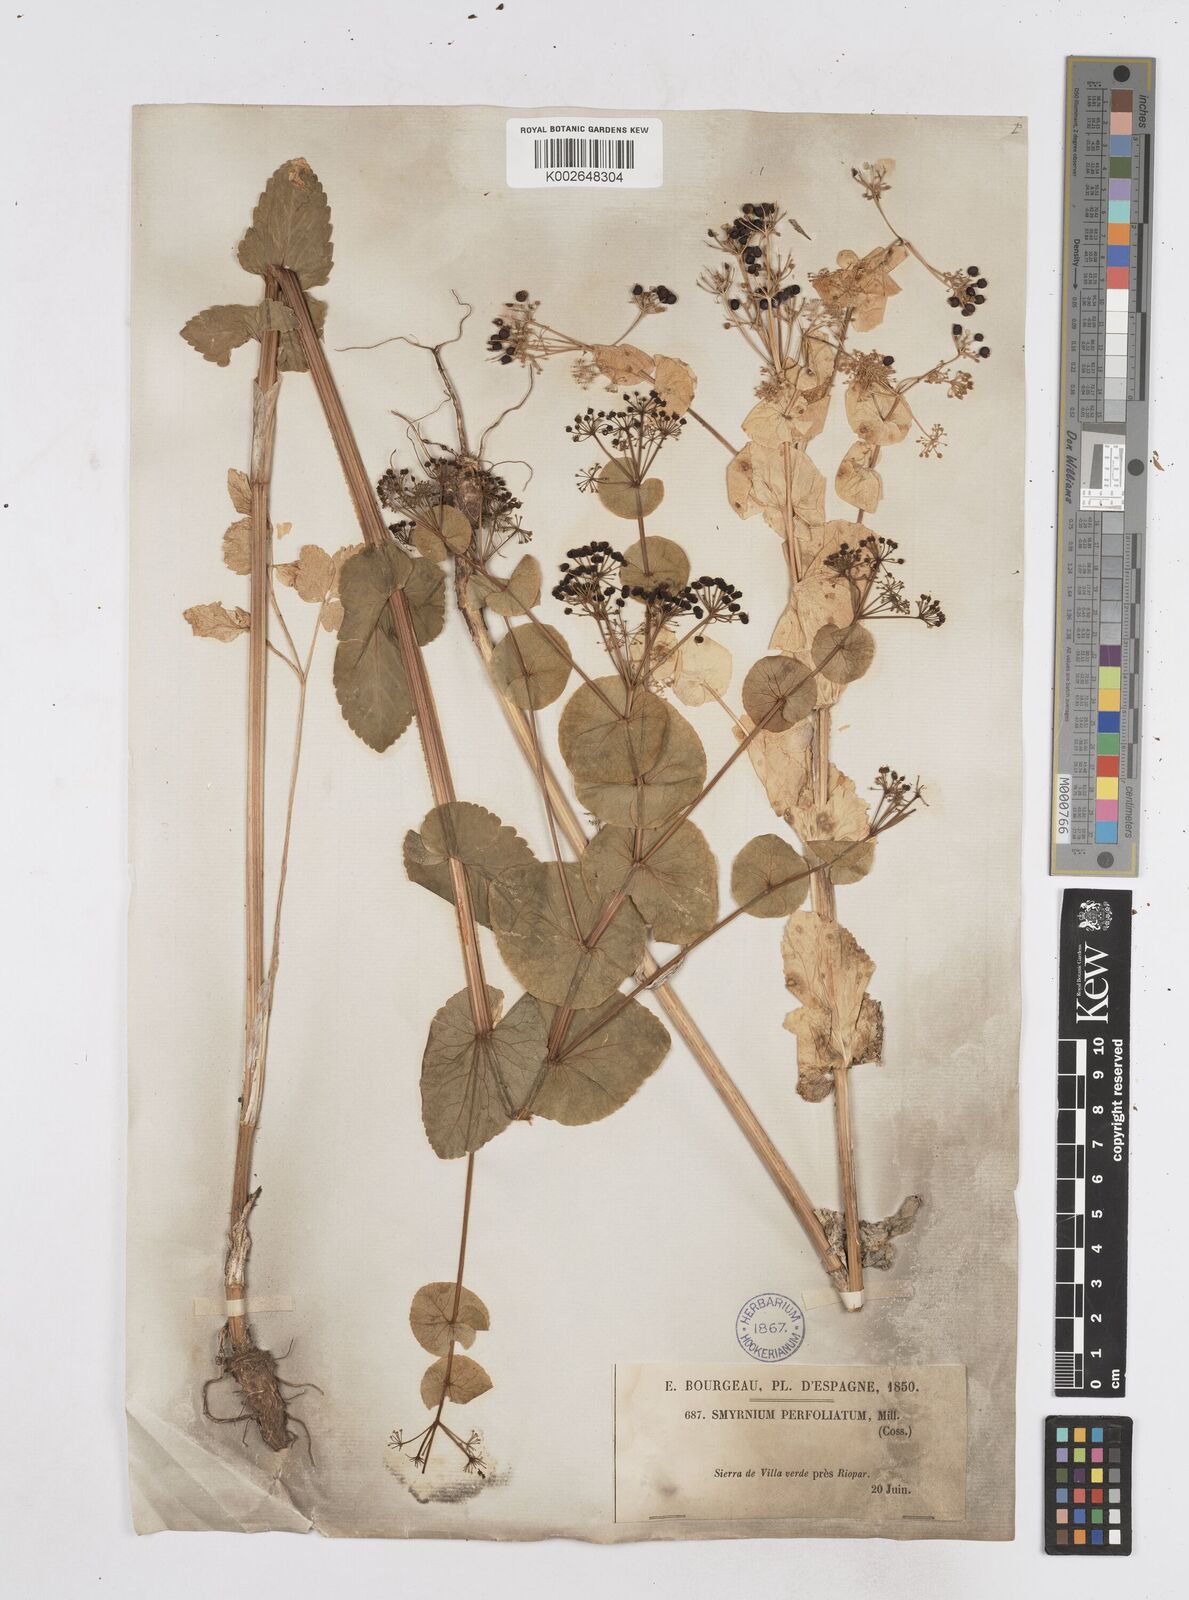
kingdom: Plantae
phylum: Tracheophyta
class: Magnoliopsida
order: Apiales
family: Apiaceae
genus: Smyrnium
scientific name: Smyrnium perfoliatum
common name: Perfoliate alexanders
